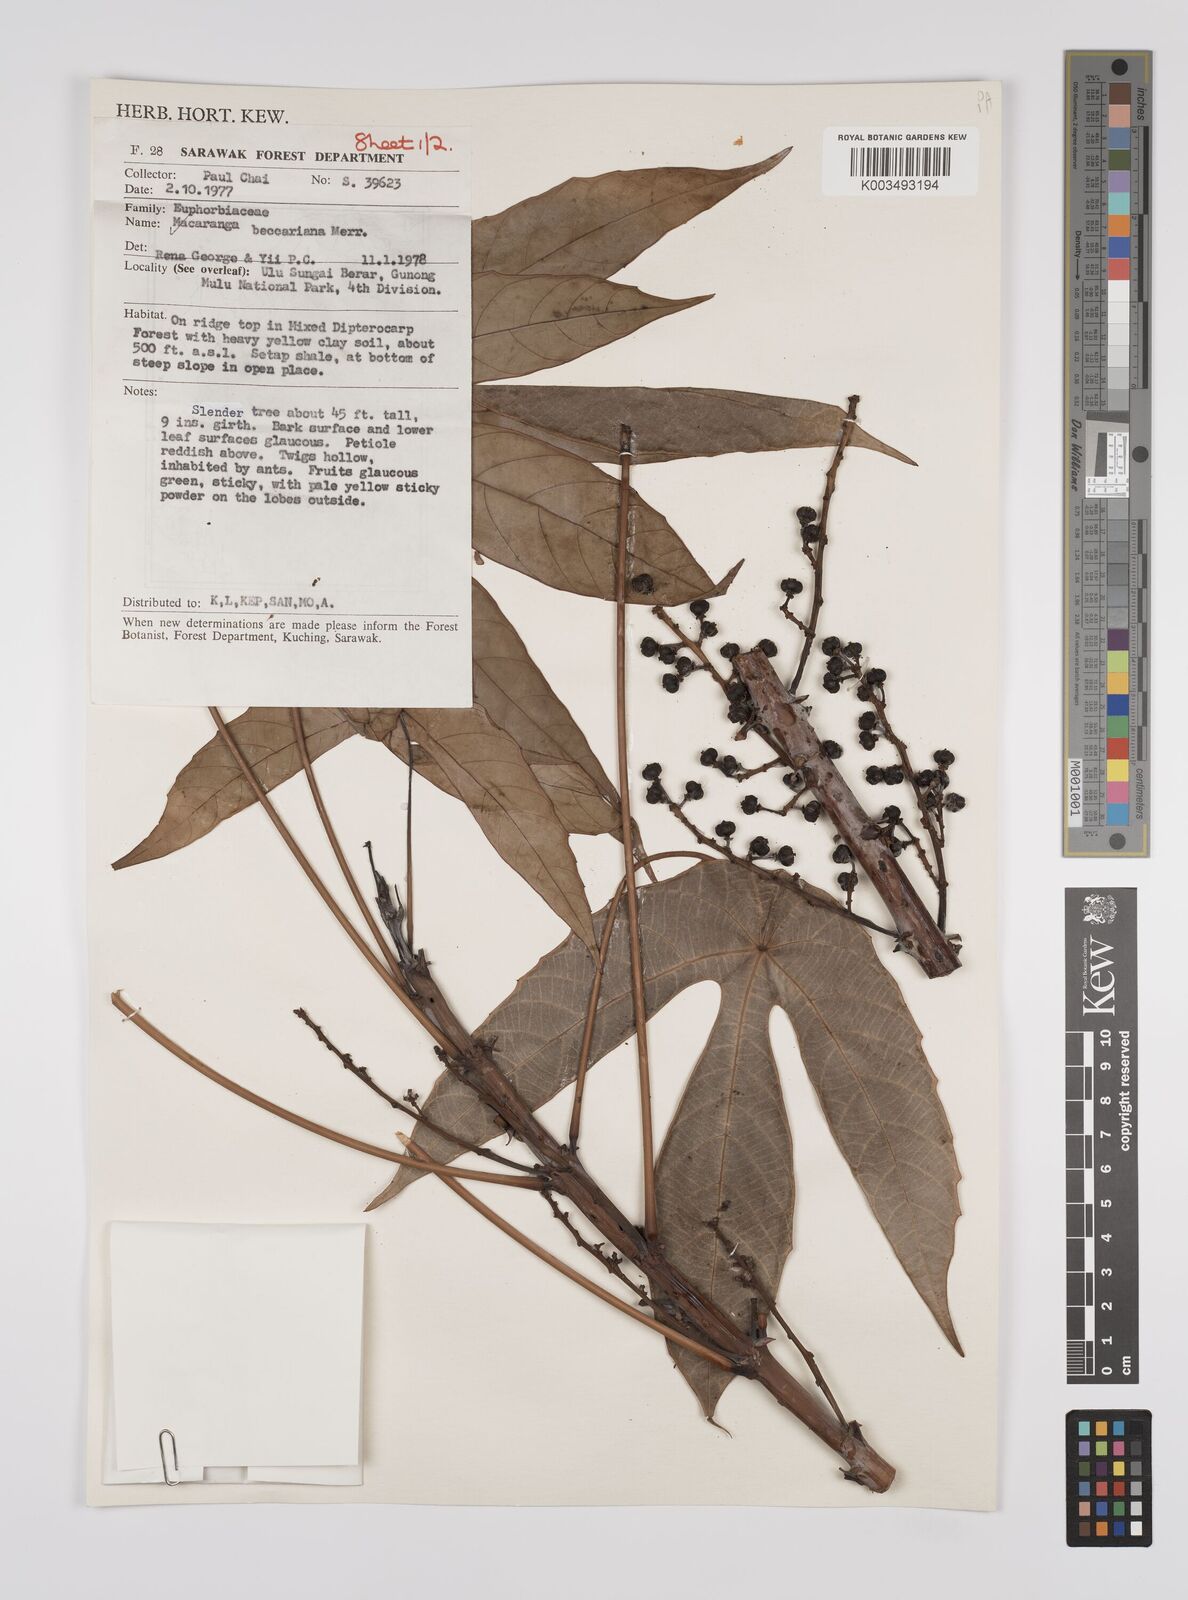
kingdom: Plantae
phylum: Tracheophyta
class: Magnoliopsida
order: Malpighiales
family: Euphorbiaceae
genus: Macaranga
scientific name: Macaranga beccariana
